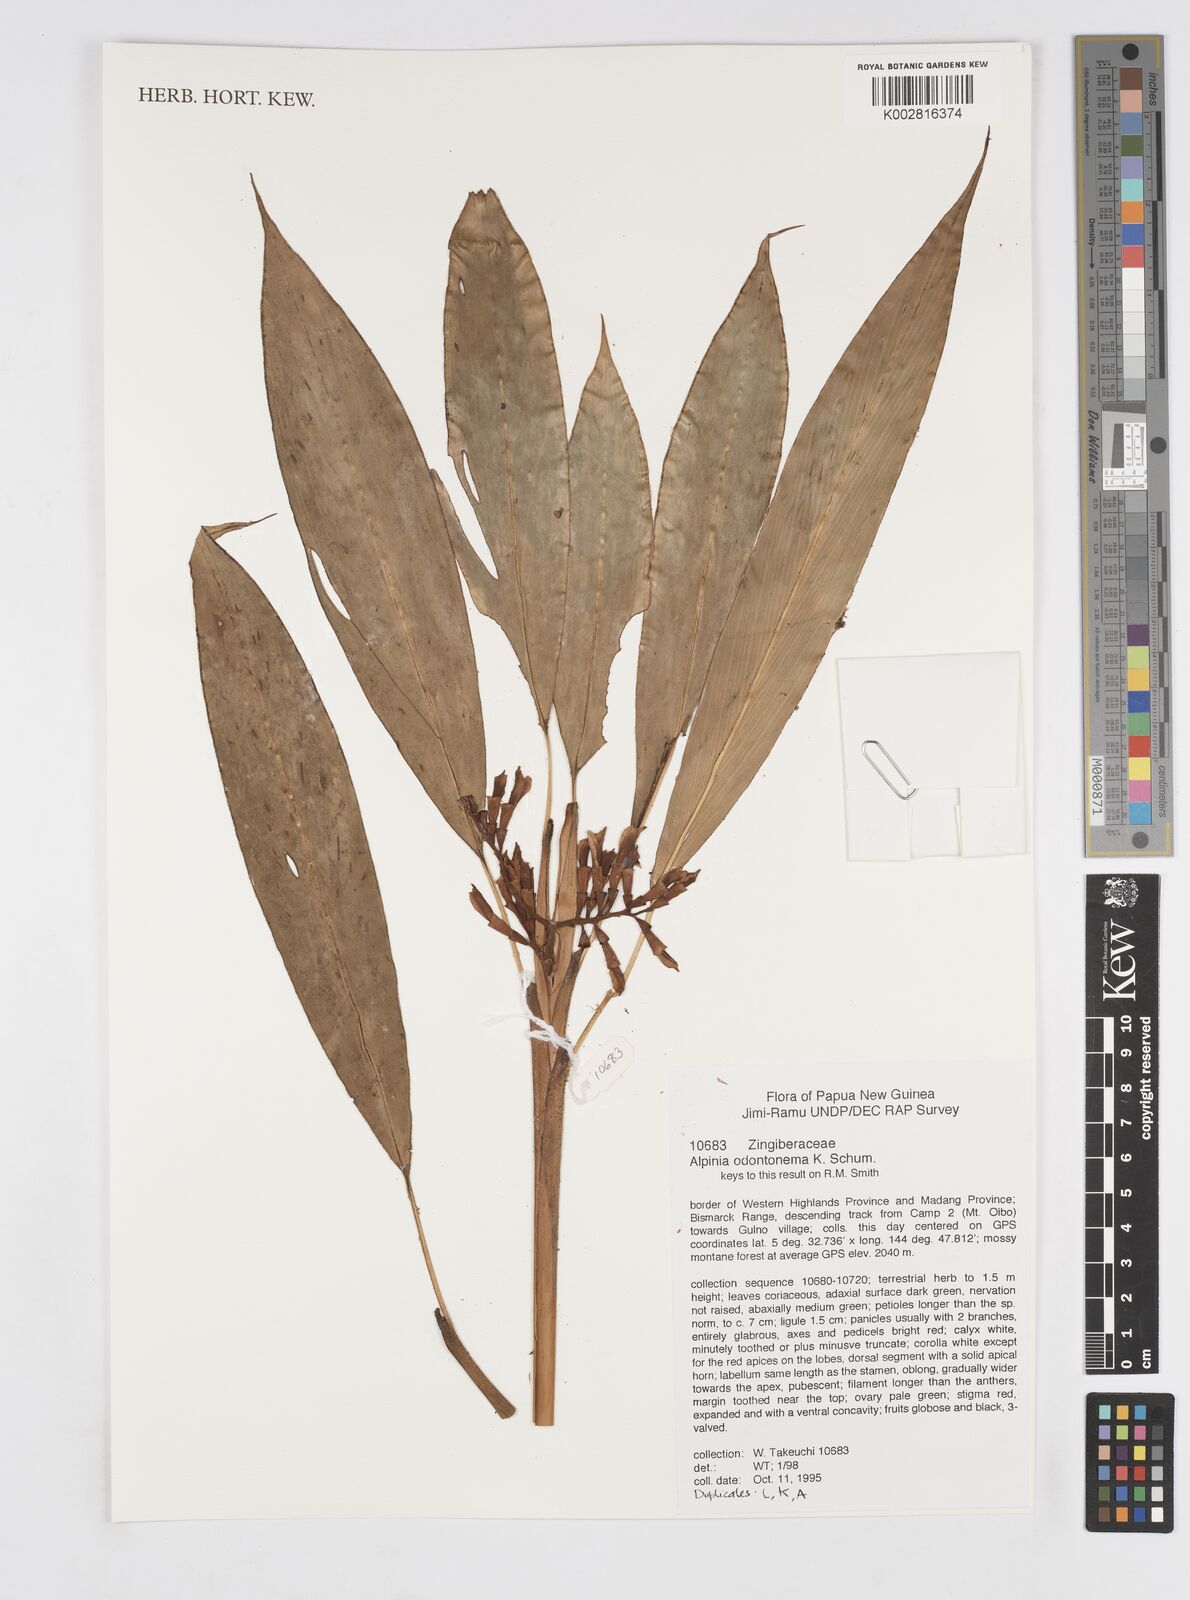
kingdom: Plantae
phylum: Tracheophyta
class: Liliopsida
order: Zingiberales
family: Zingiberaceae
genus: Alpinia
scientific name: Alpinia odontonema
